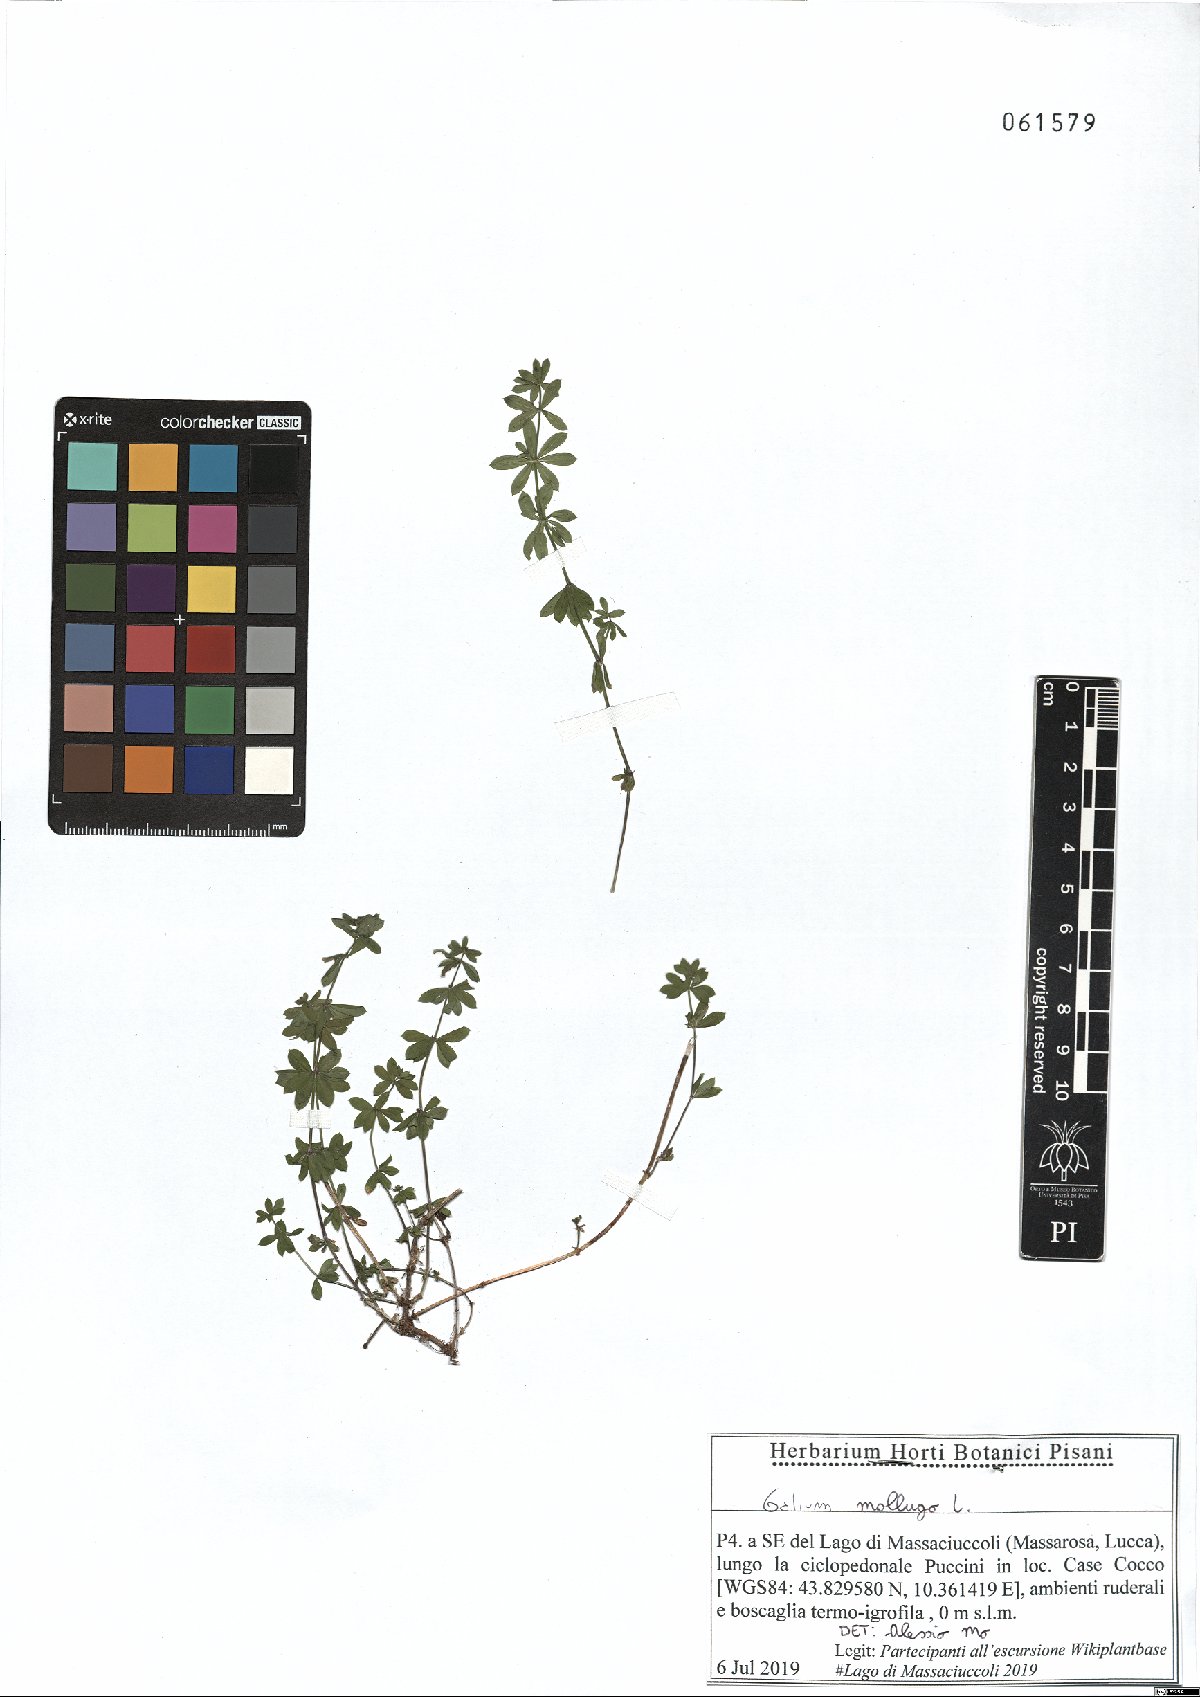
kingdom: Plantae
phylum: Tracheophyta
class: Magnoliopsida
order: Gentianales
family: Rubiaceae
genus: Galium
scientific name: Galium mollugo
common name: Hedge bedstraw
